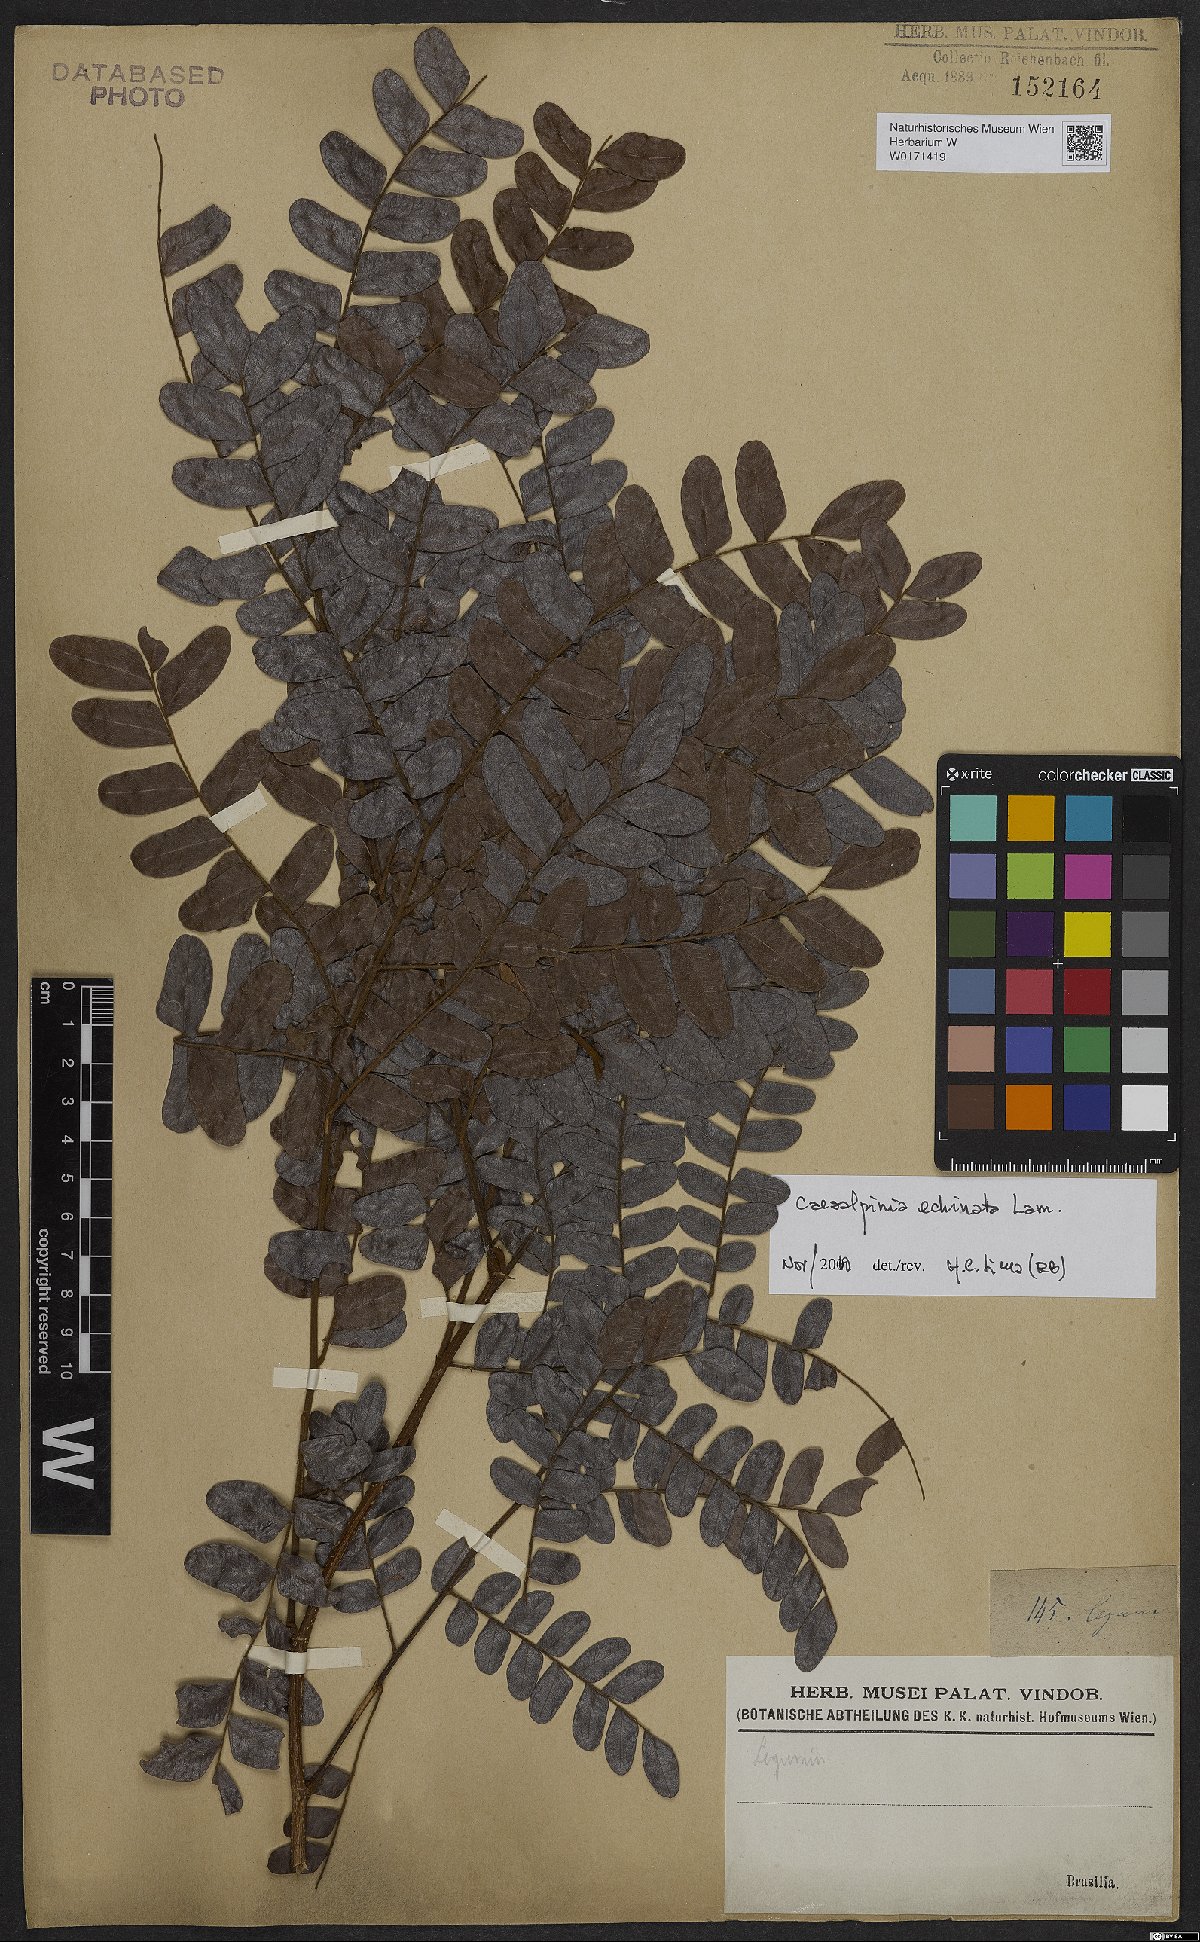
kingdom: Plantae
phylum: Tracheophyta
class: Magnoliopsida
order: Fabales
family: Fabaceae
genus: Paubrasilia
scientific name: Paubrasilia echinata
